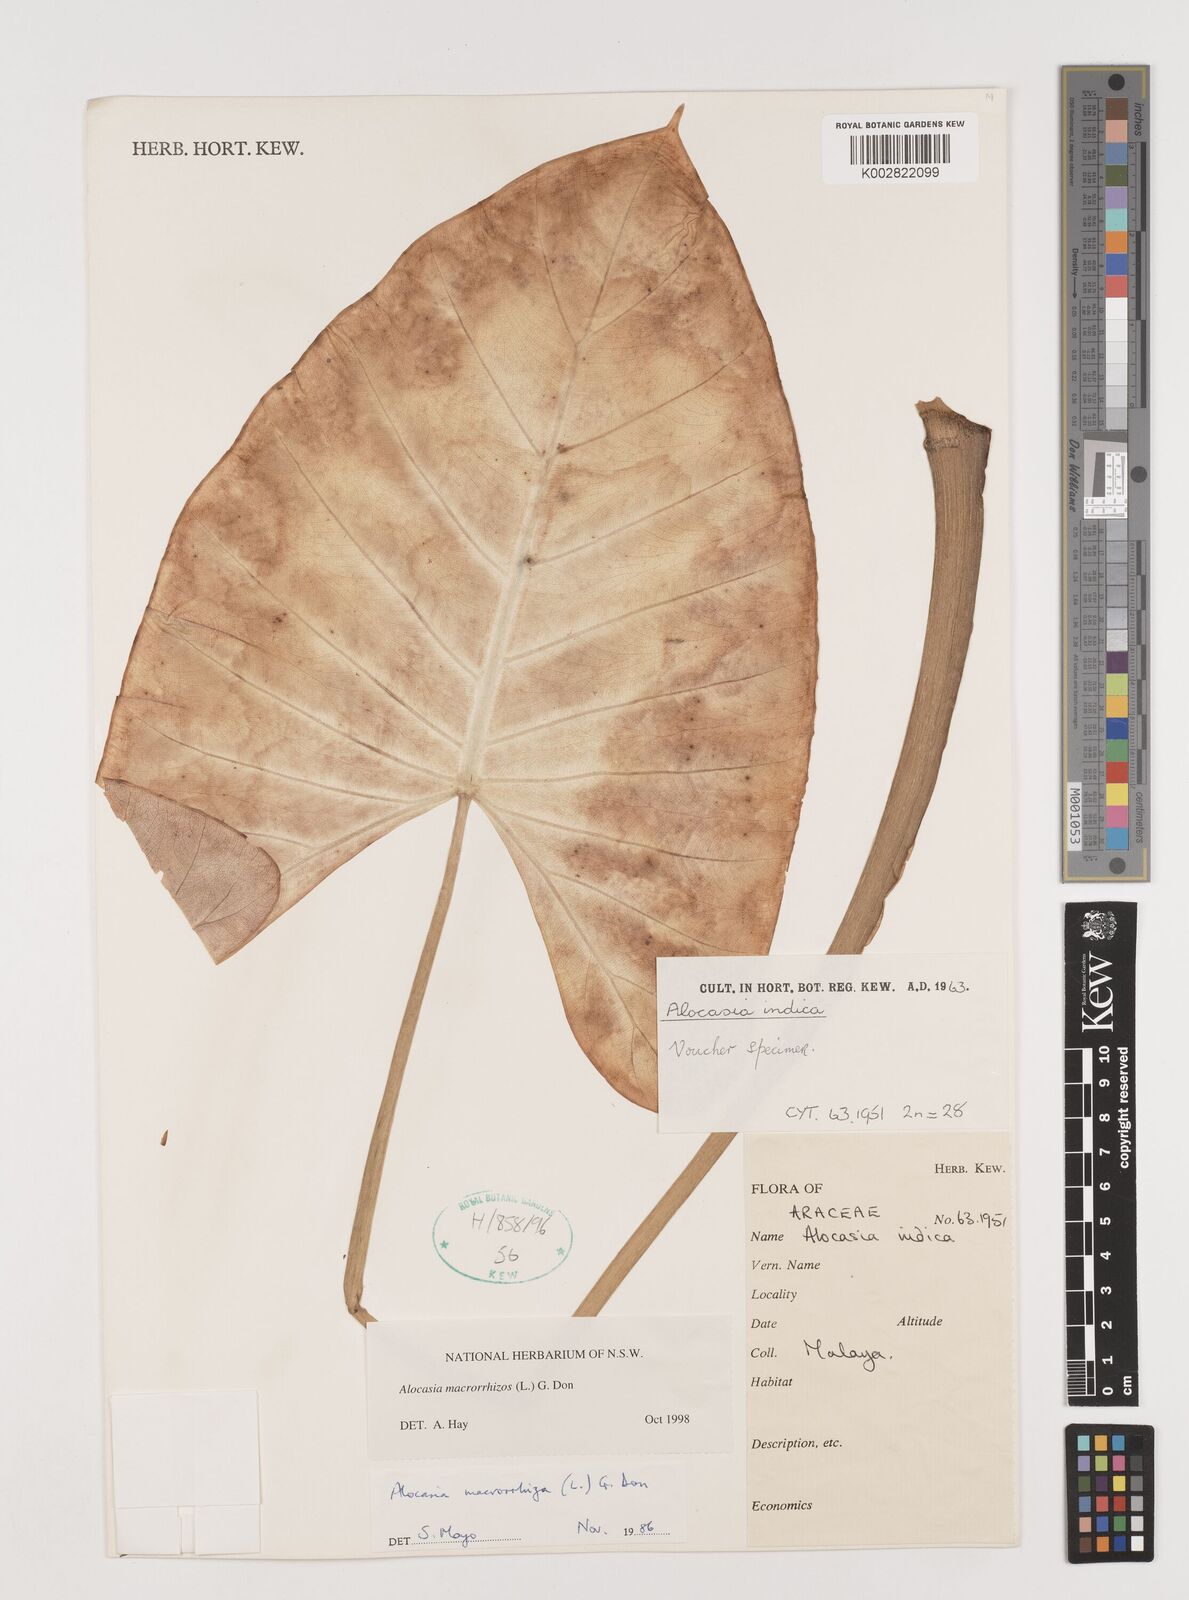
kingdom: Plantae
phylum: Tracheophyta
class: Liliopsida
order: Alismatales
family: Araceae
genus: Alocasia
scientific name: Alocasia macrorrhizos
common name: Giant taro
